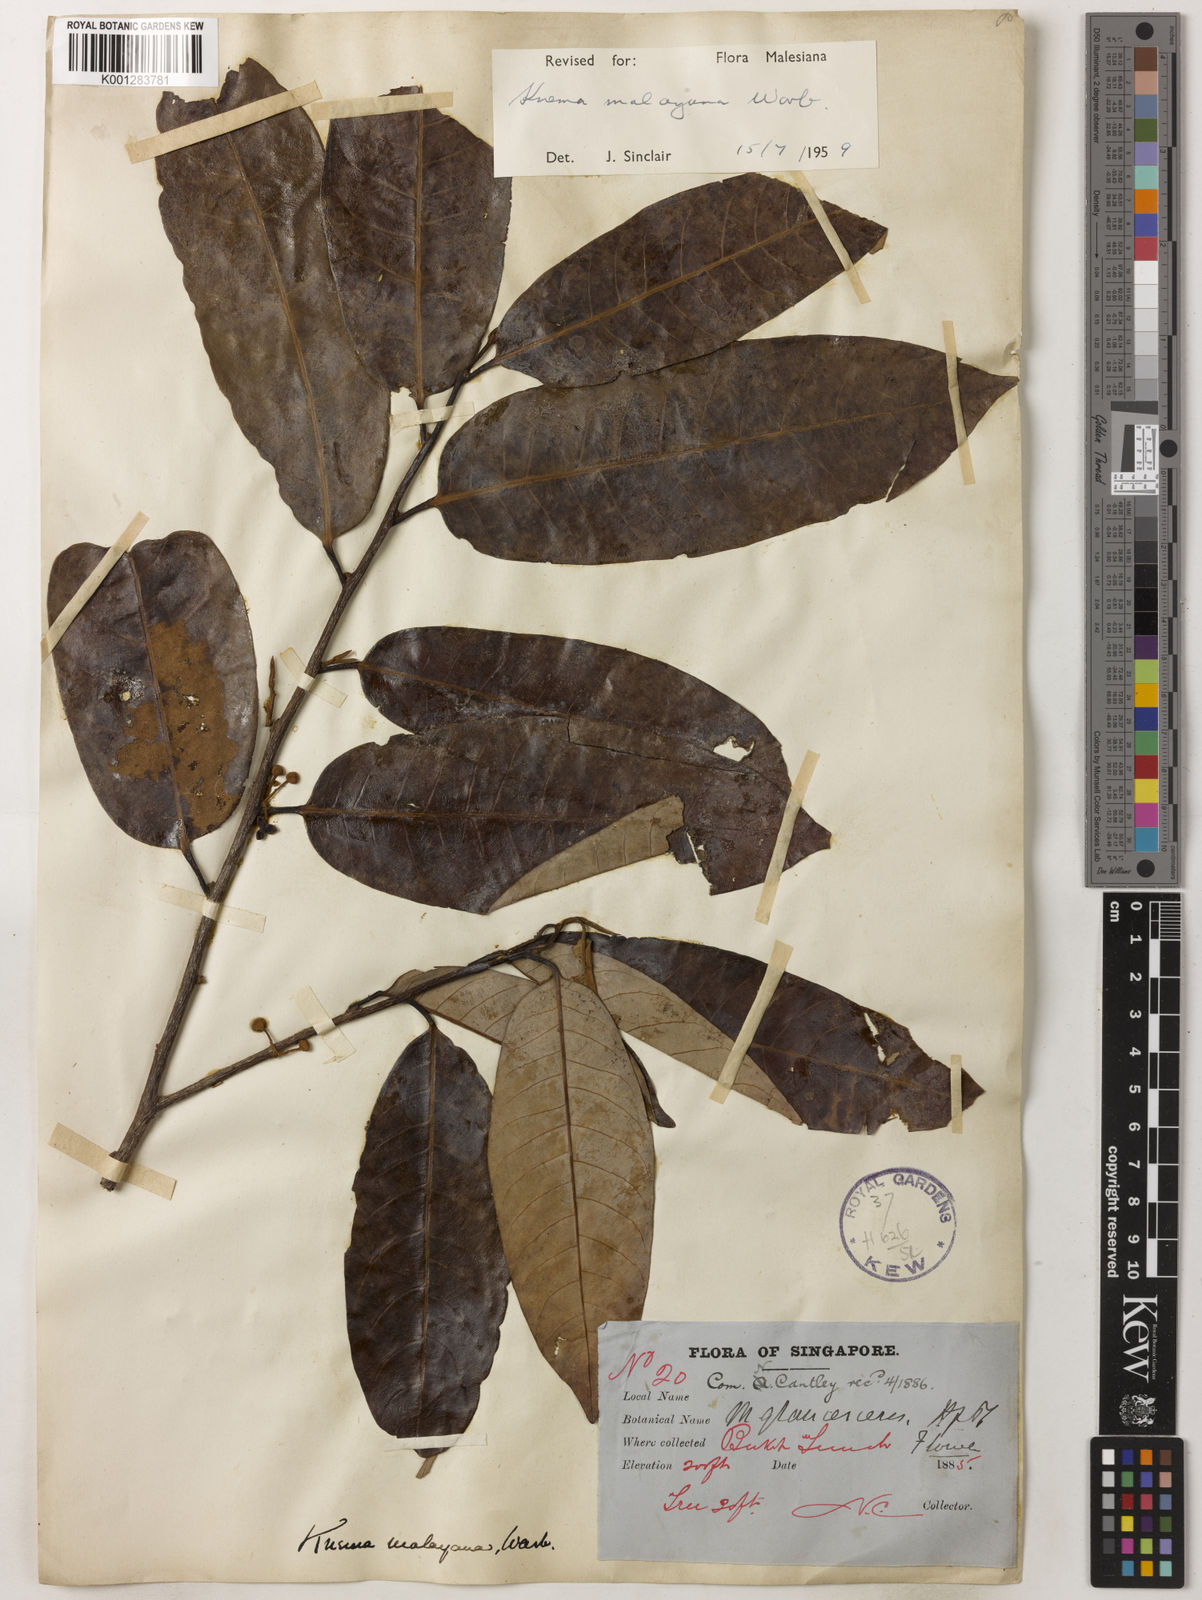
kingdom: Plantae
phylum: Tracheophyta
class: Magnoliopsida
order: Magnoliales
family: Myristicaceae
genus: Knema
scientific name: Knema malayana
